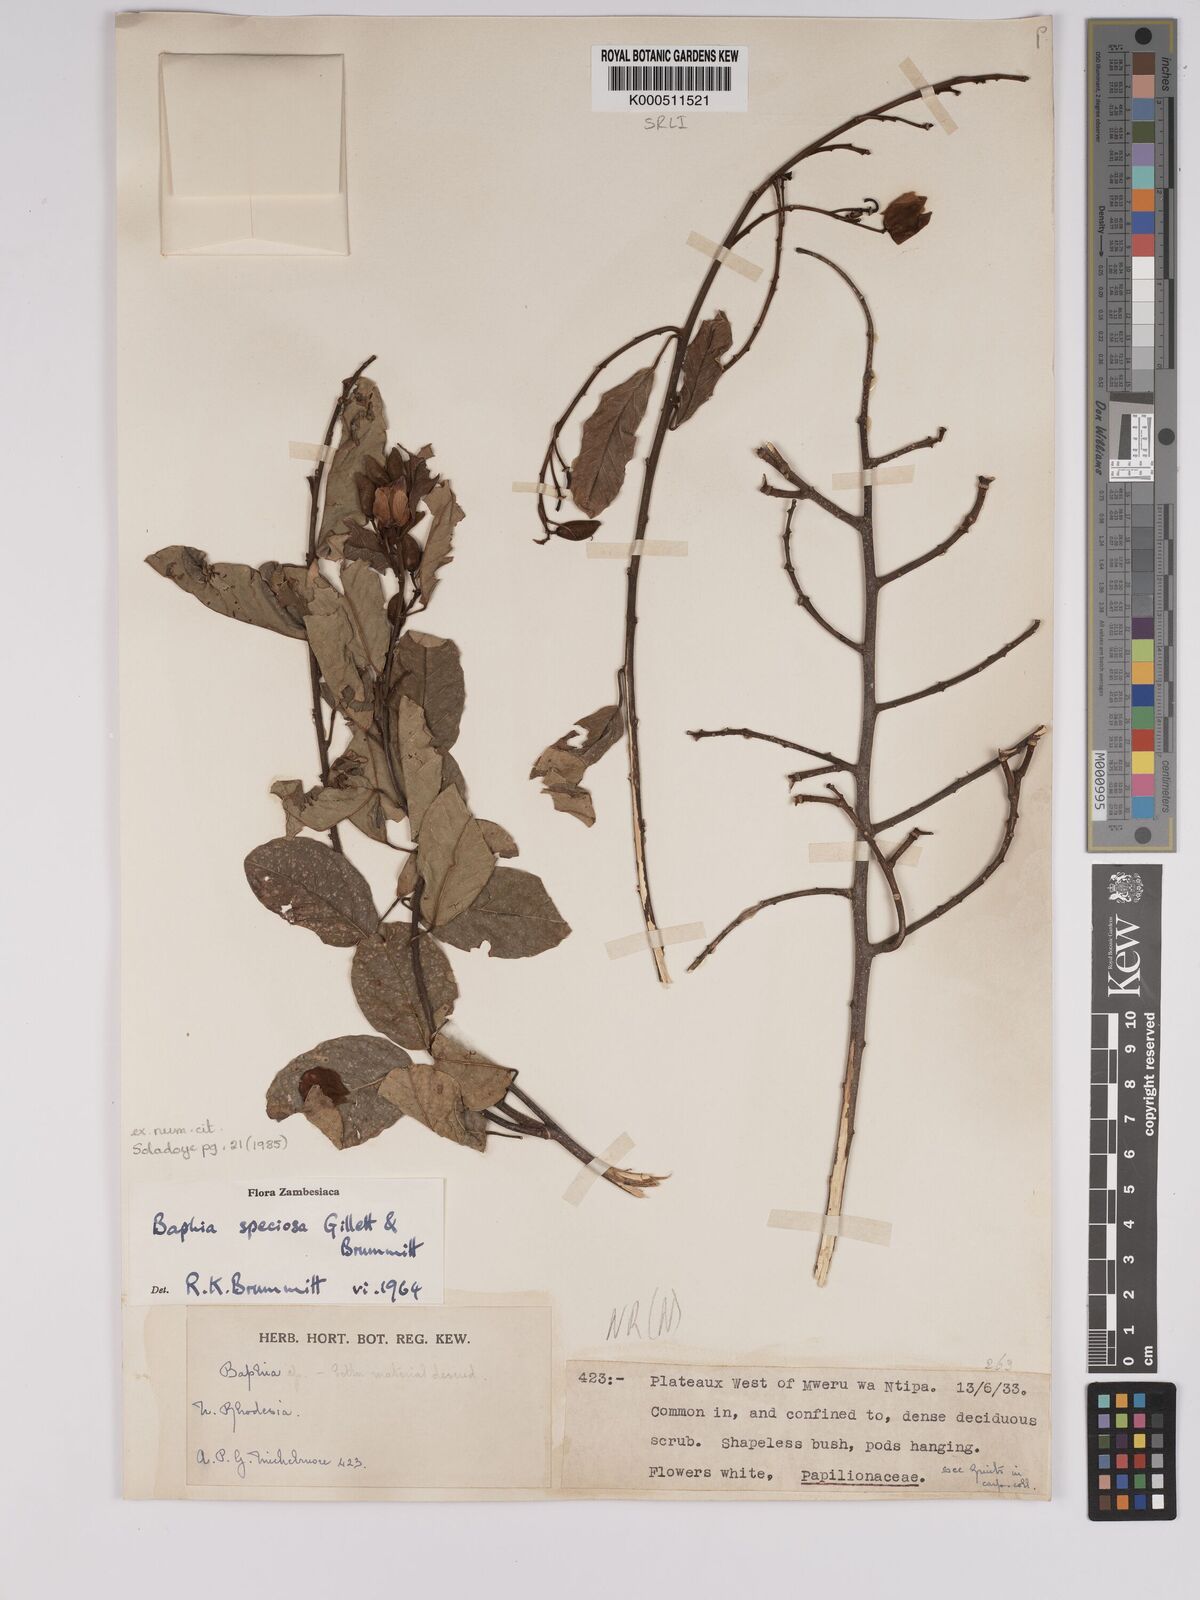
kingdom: Plantae
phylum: Tracheophyta
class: Magnoliopsida
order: Fabales
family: Fabaceae
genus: Baphia
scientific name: Baphia speciosa
